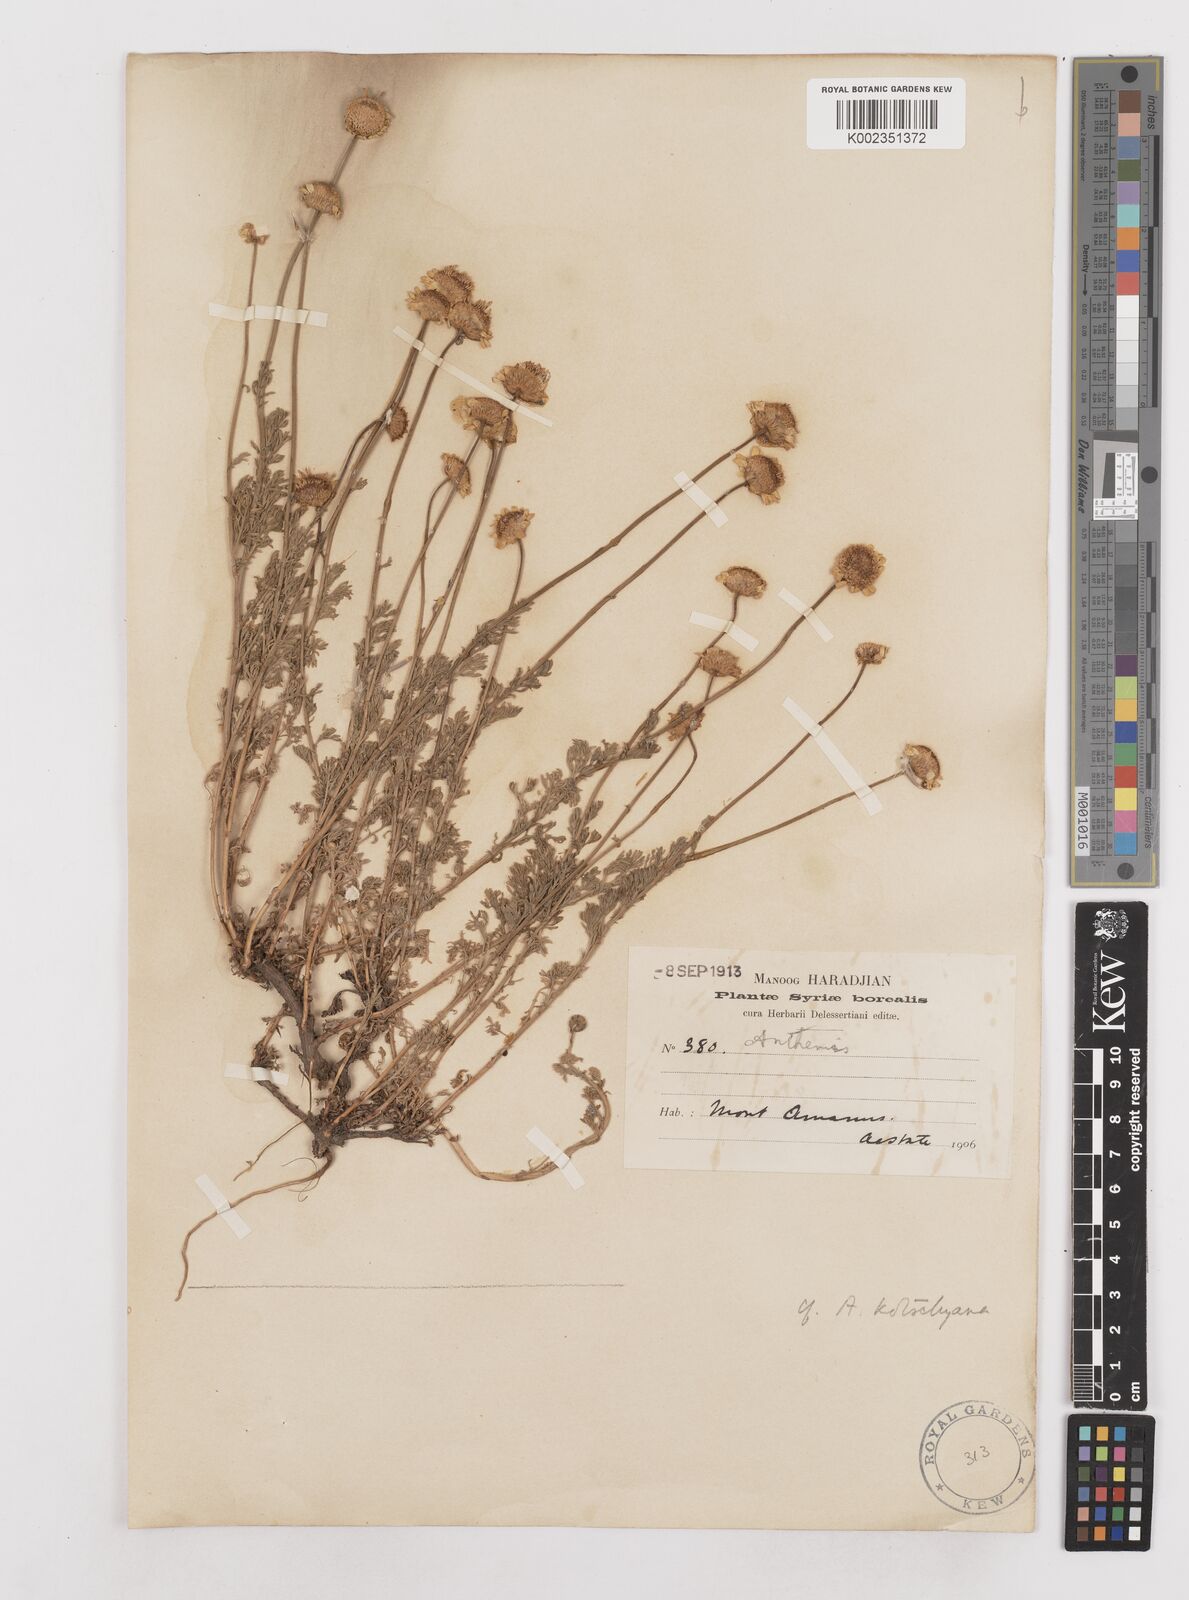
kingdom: Plantae
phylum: Tracheophyta
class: Magnoliopsida
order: Asterales
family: Asteraceae
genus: Anthemis
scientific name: Anthemis kotschyana
